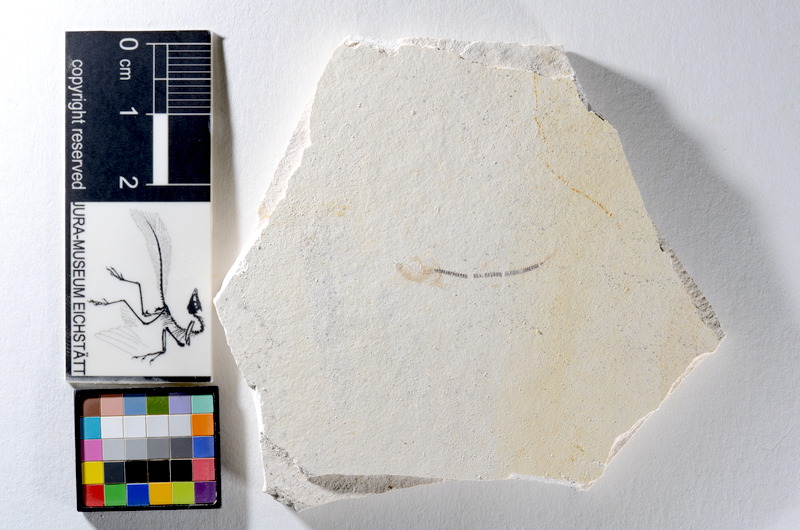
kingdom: Animalia
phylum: Chordata
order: Salmoniformes
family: Orthogonikleithridae
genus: Orthogonikleithrus
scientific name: Orthogonikleithrus hoelli
